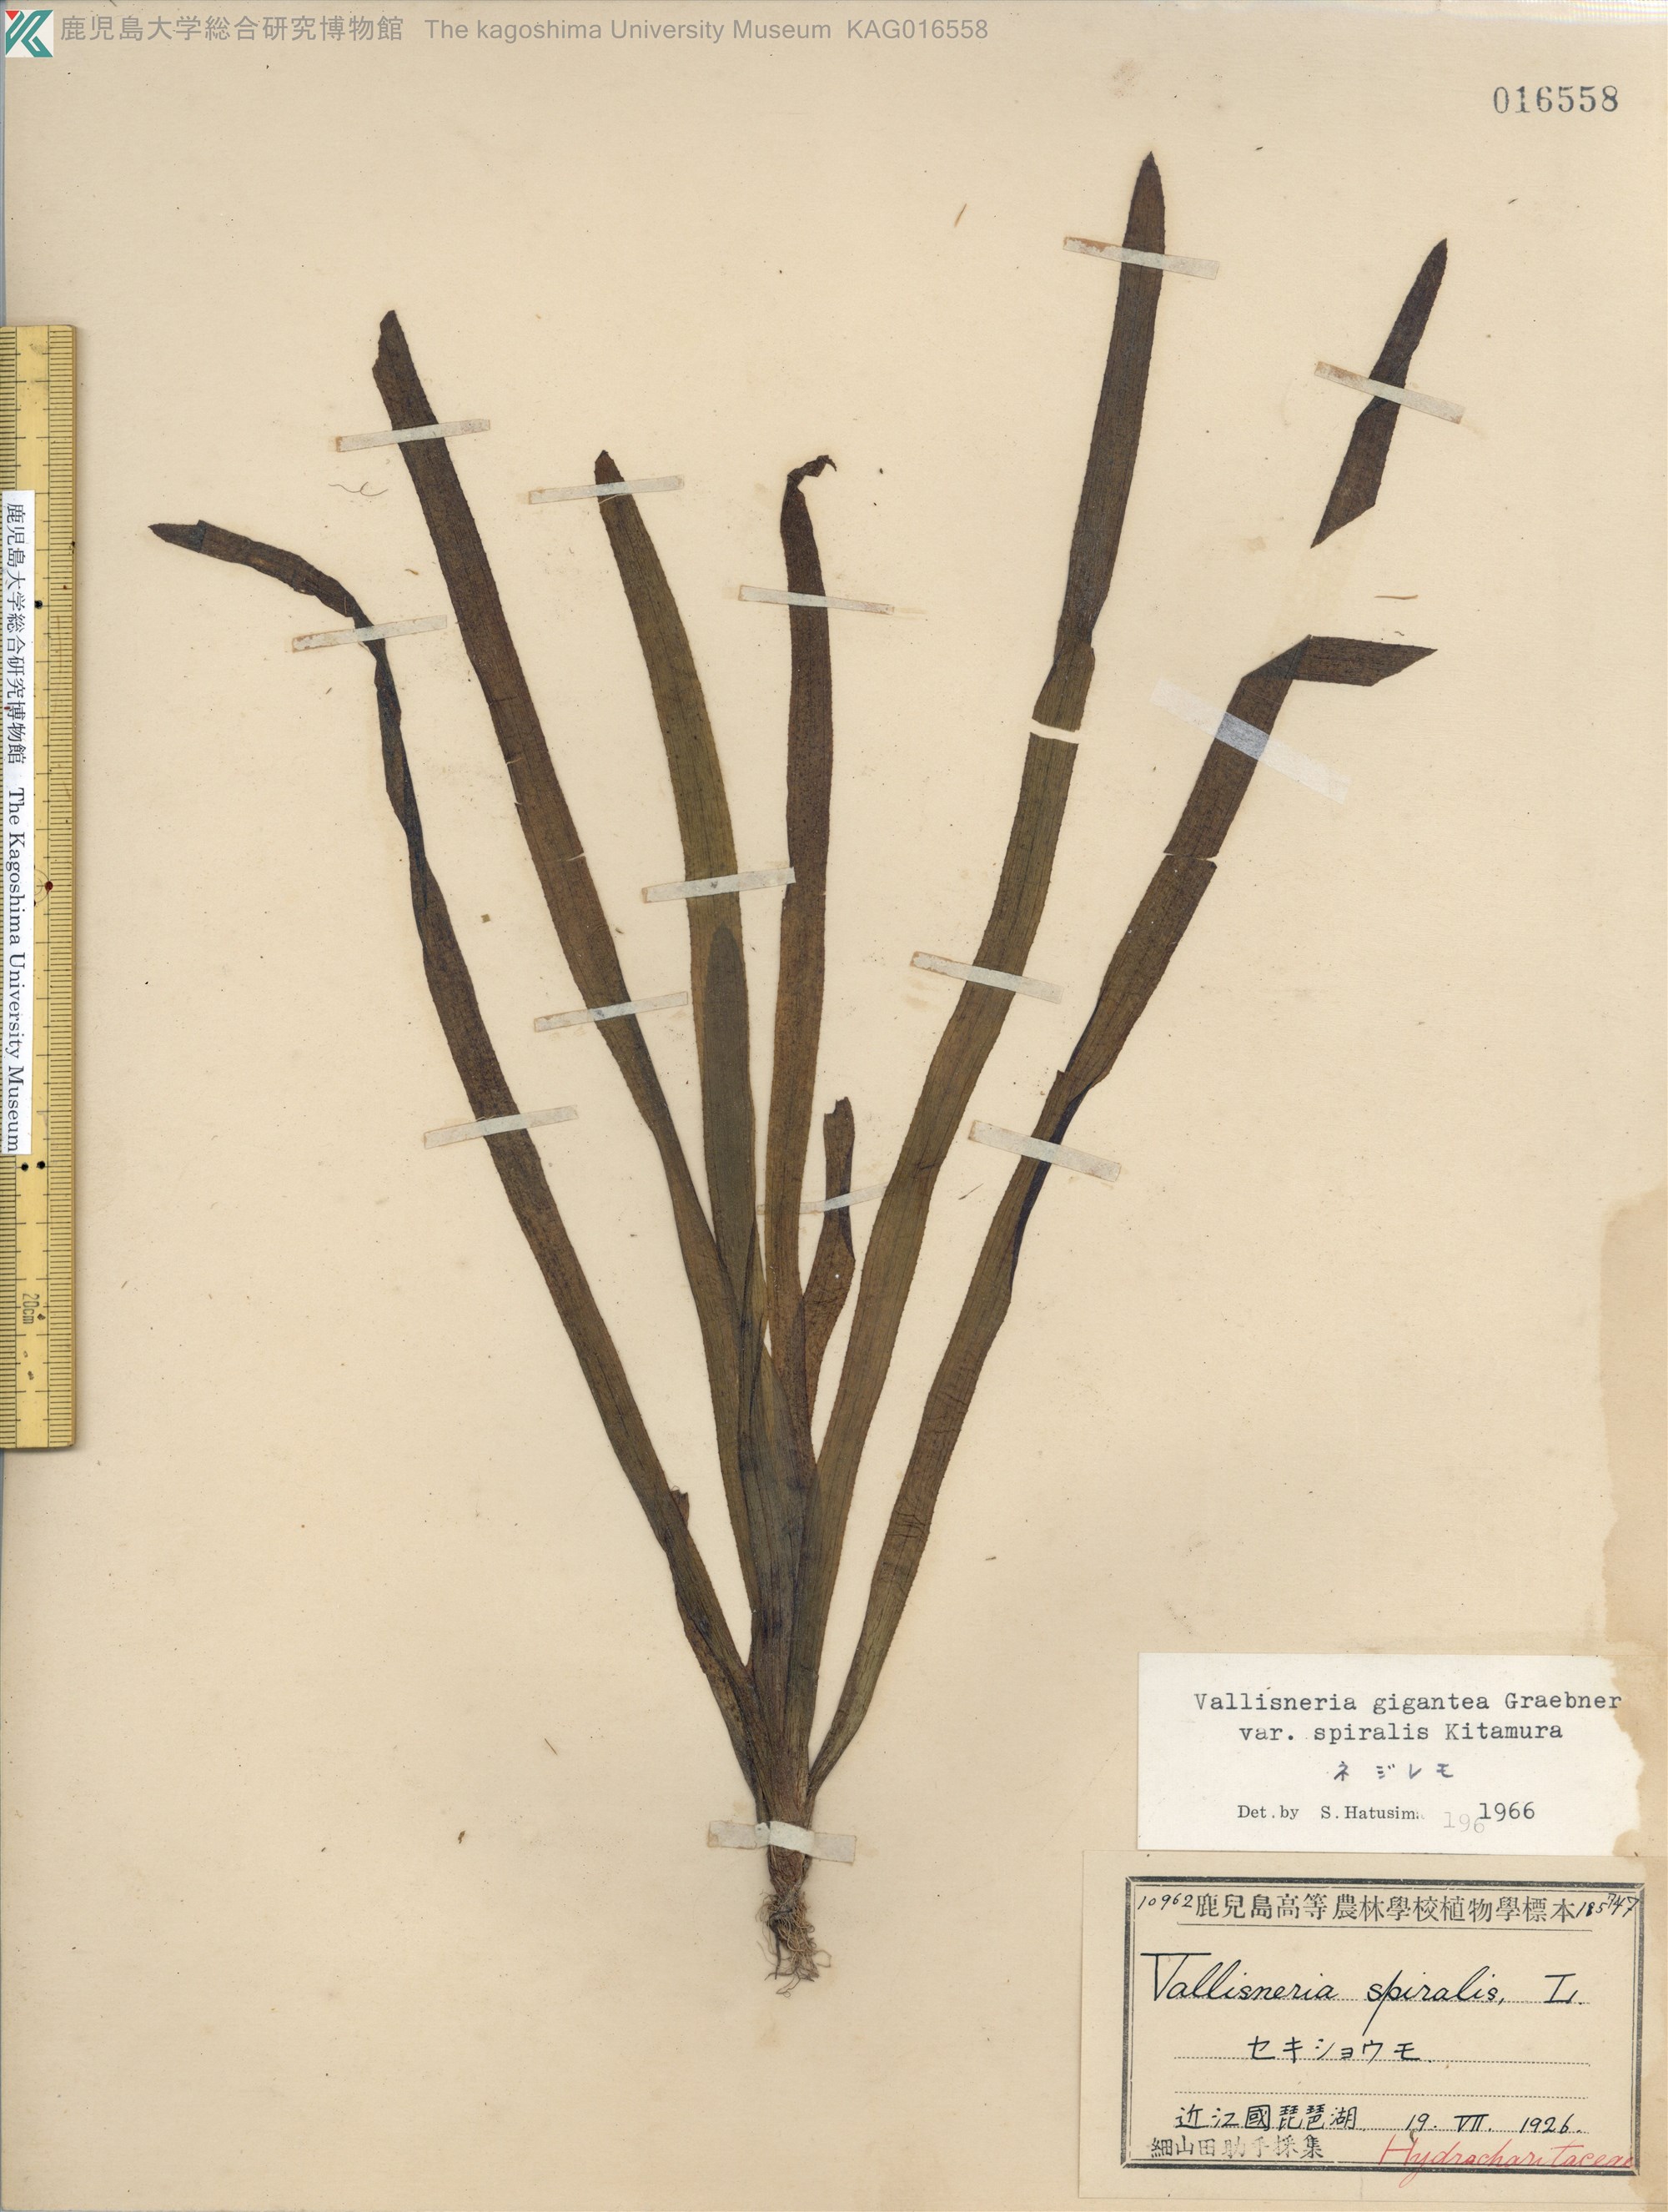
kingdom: Plantae
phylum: Tracheophyta
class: Liliopsida
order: Alismatales
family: Hydrocharitaceae
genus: Vallisneria
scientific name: Vallisneria natans
